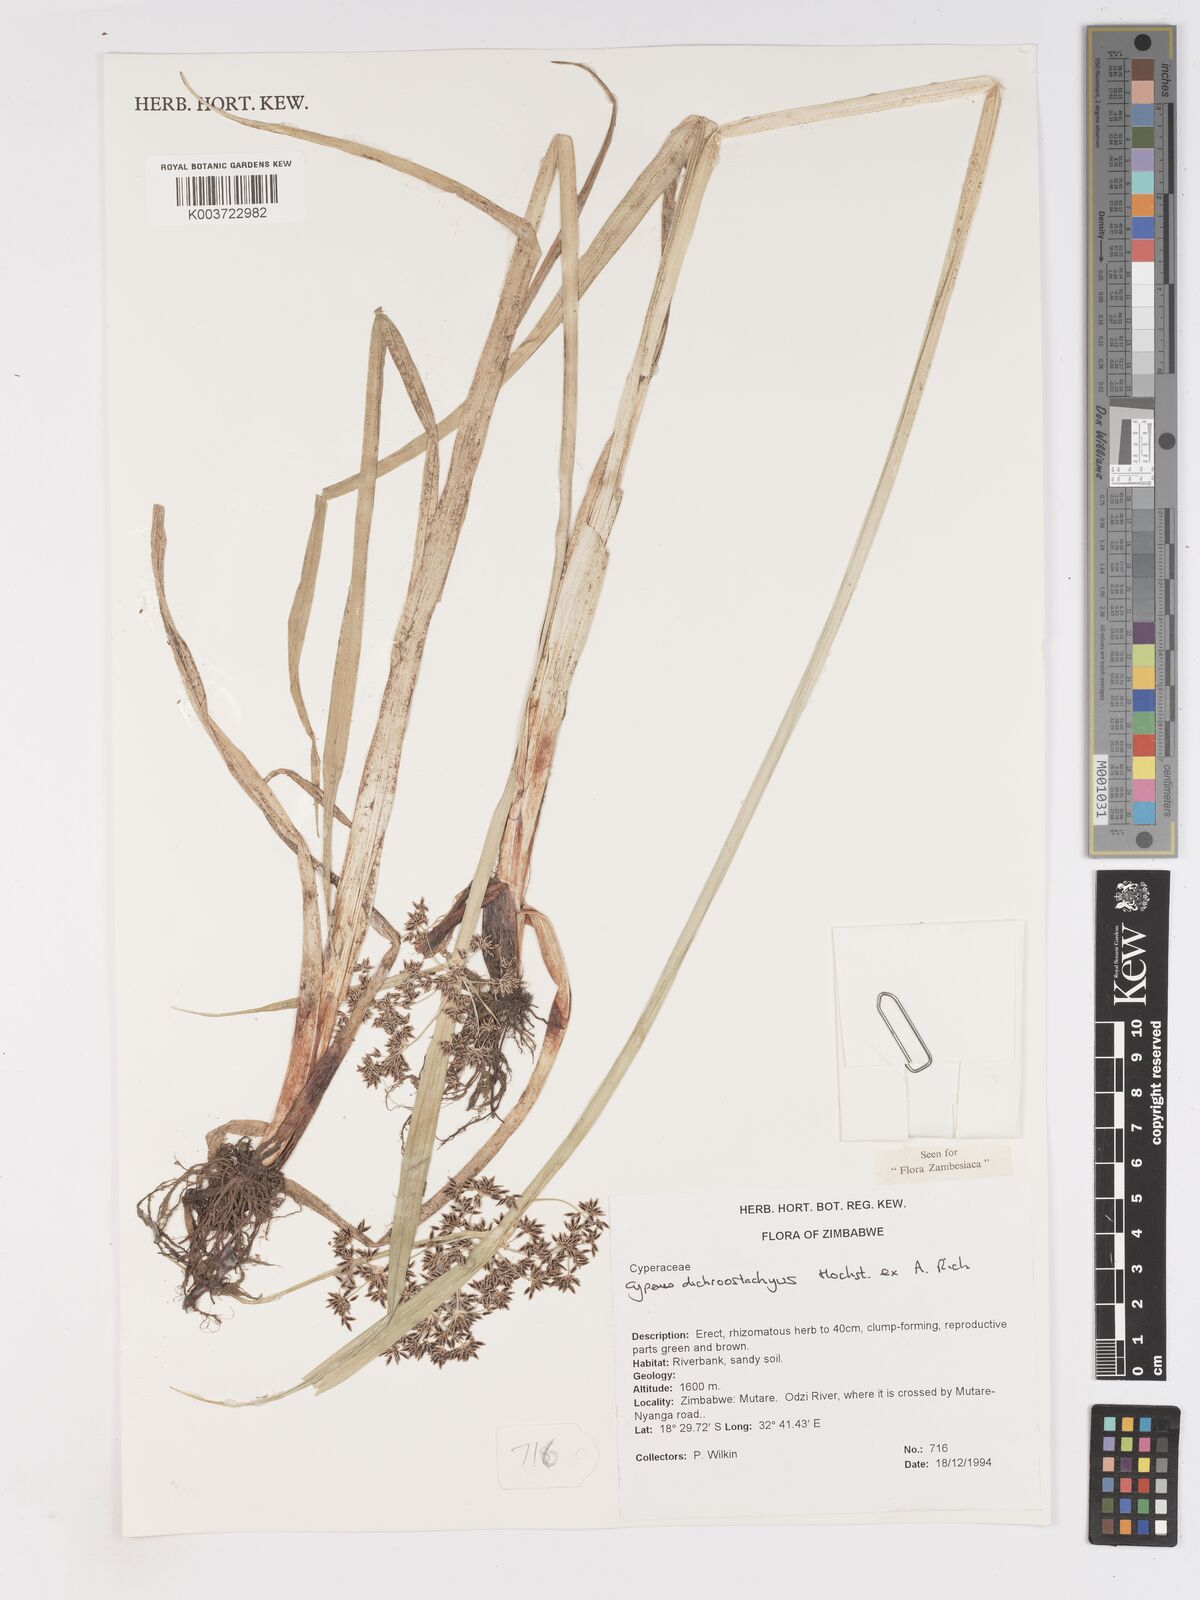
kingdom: Plantae
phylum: Tracheophyta
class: Liliopsida
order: Poales
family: Cyperaceae
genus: Cyperus
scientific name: Cyperus dichrostachyus
